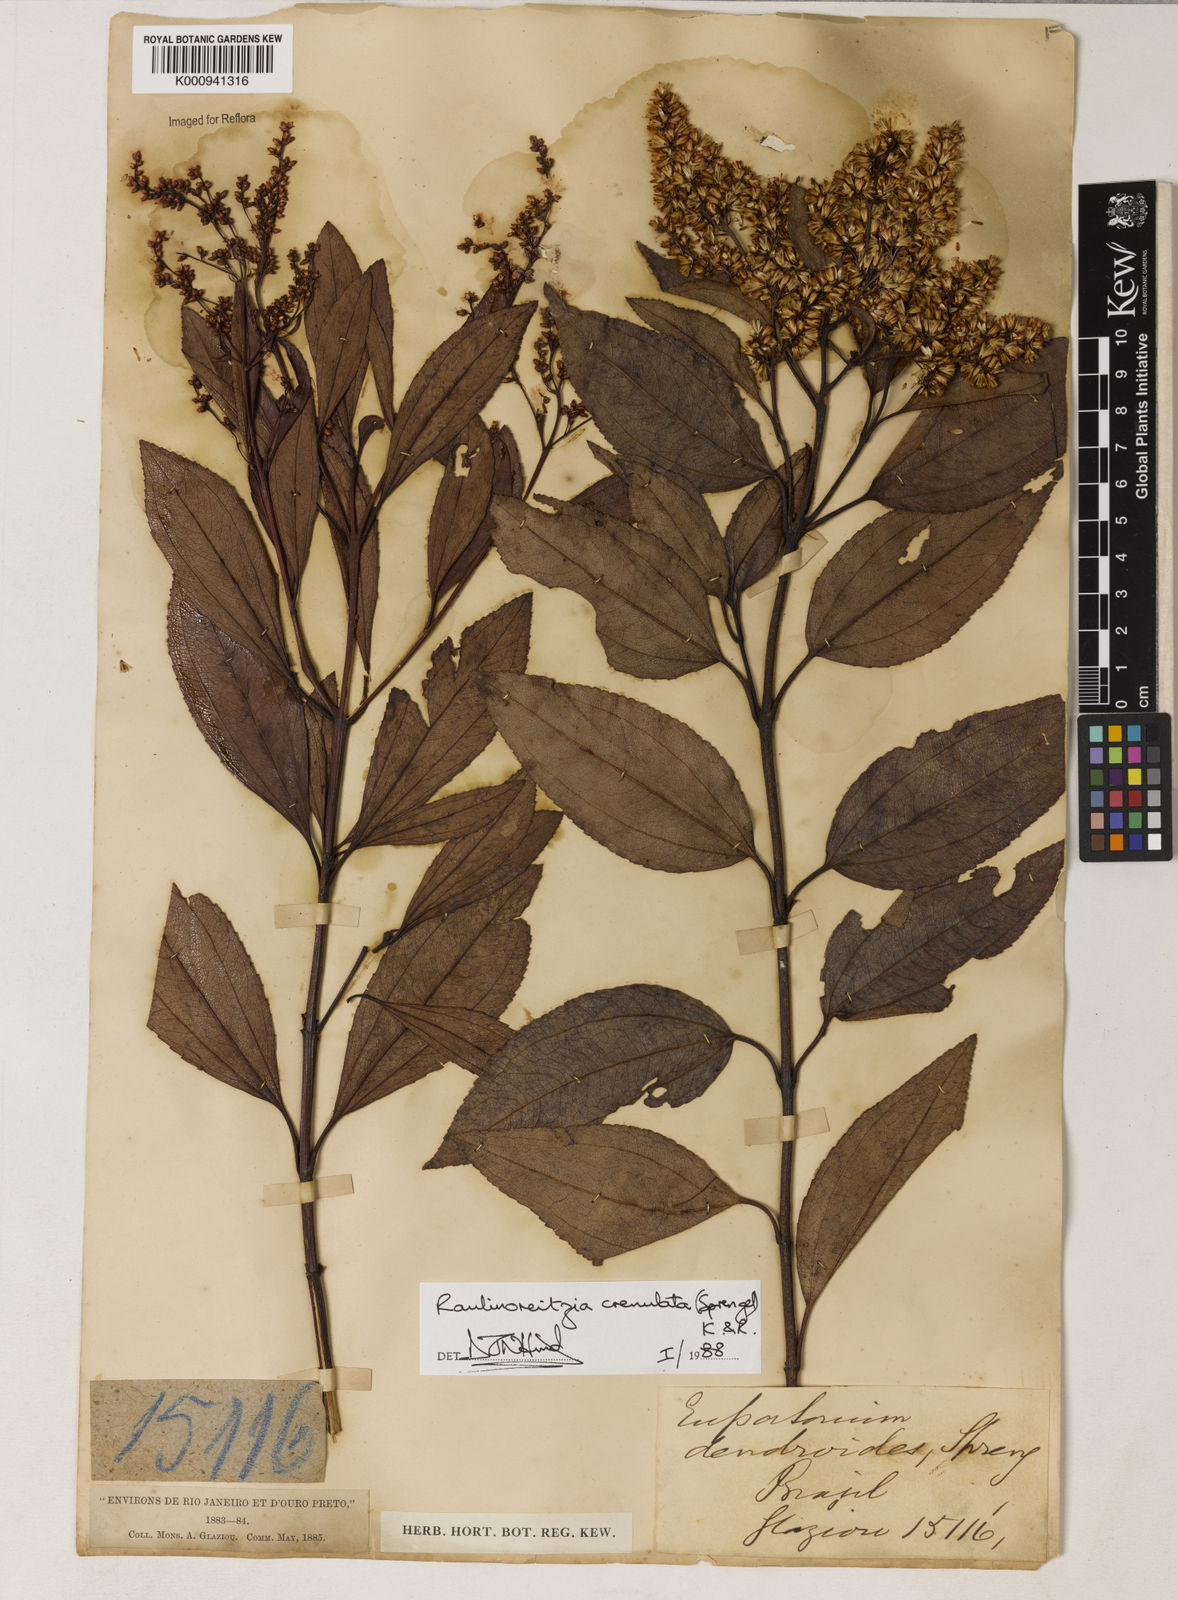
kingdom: Plantae
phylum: Tracheophyta
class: Magnoliopsida
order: Asterales
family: Asteraceae
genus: Raulinoreitzia
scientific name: Raulinoreitzia crenulata
